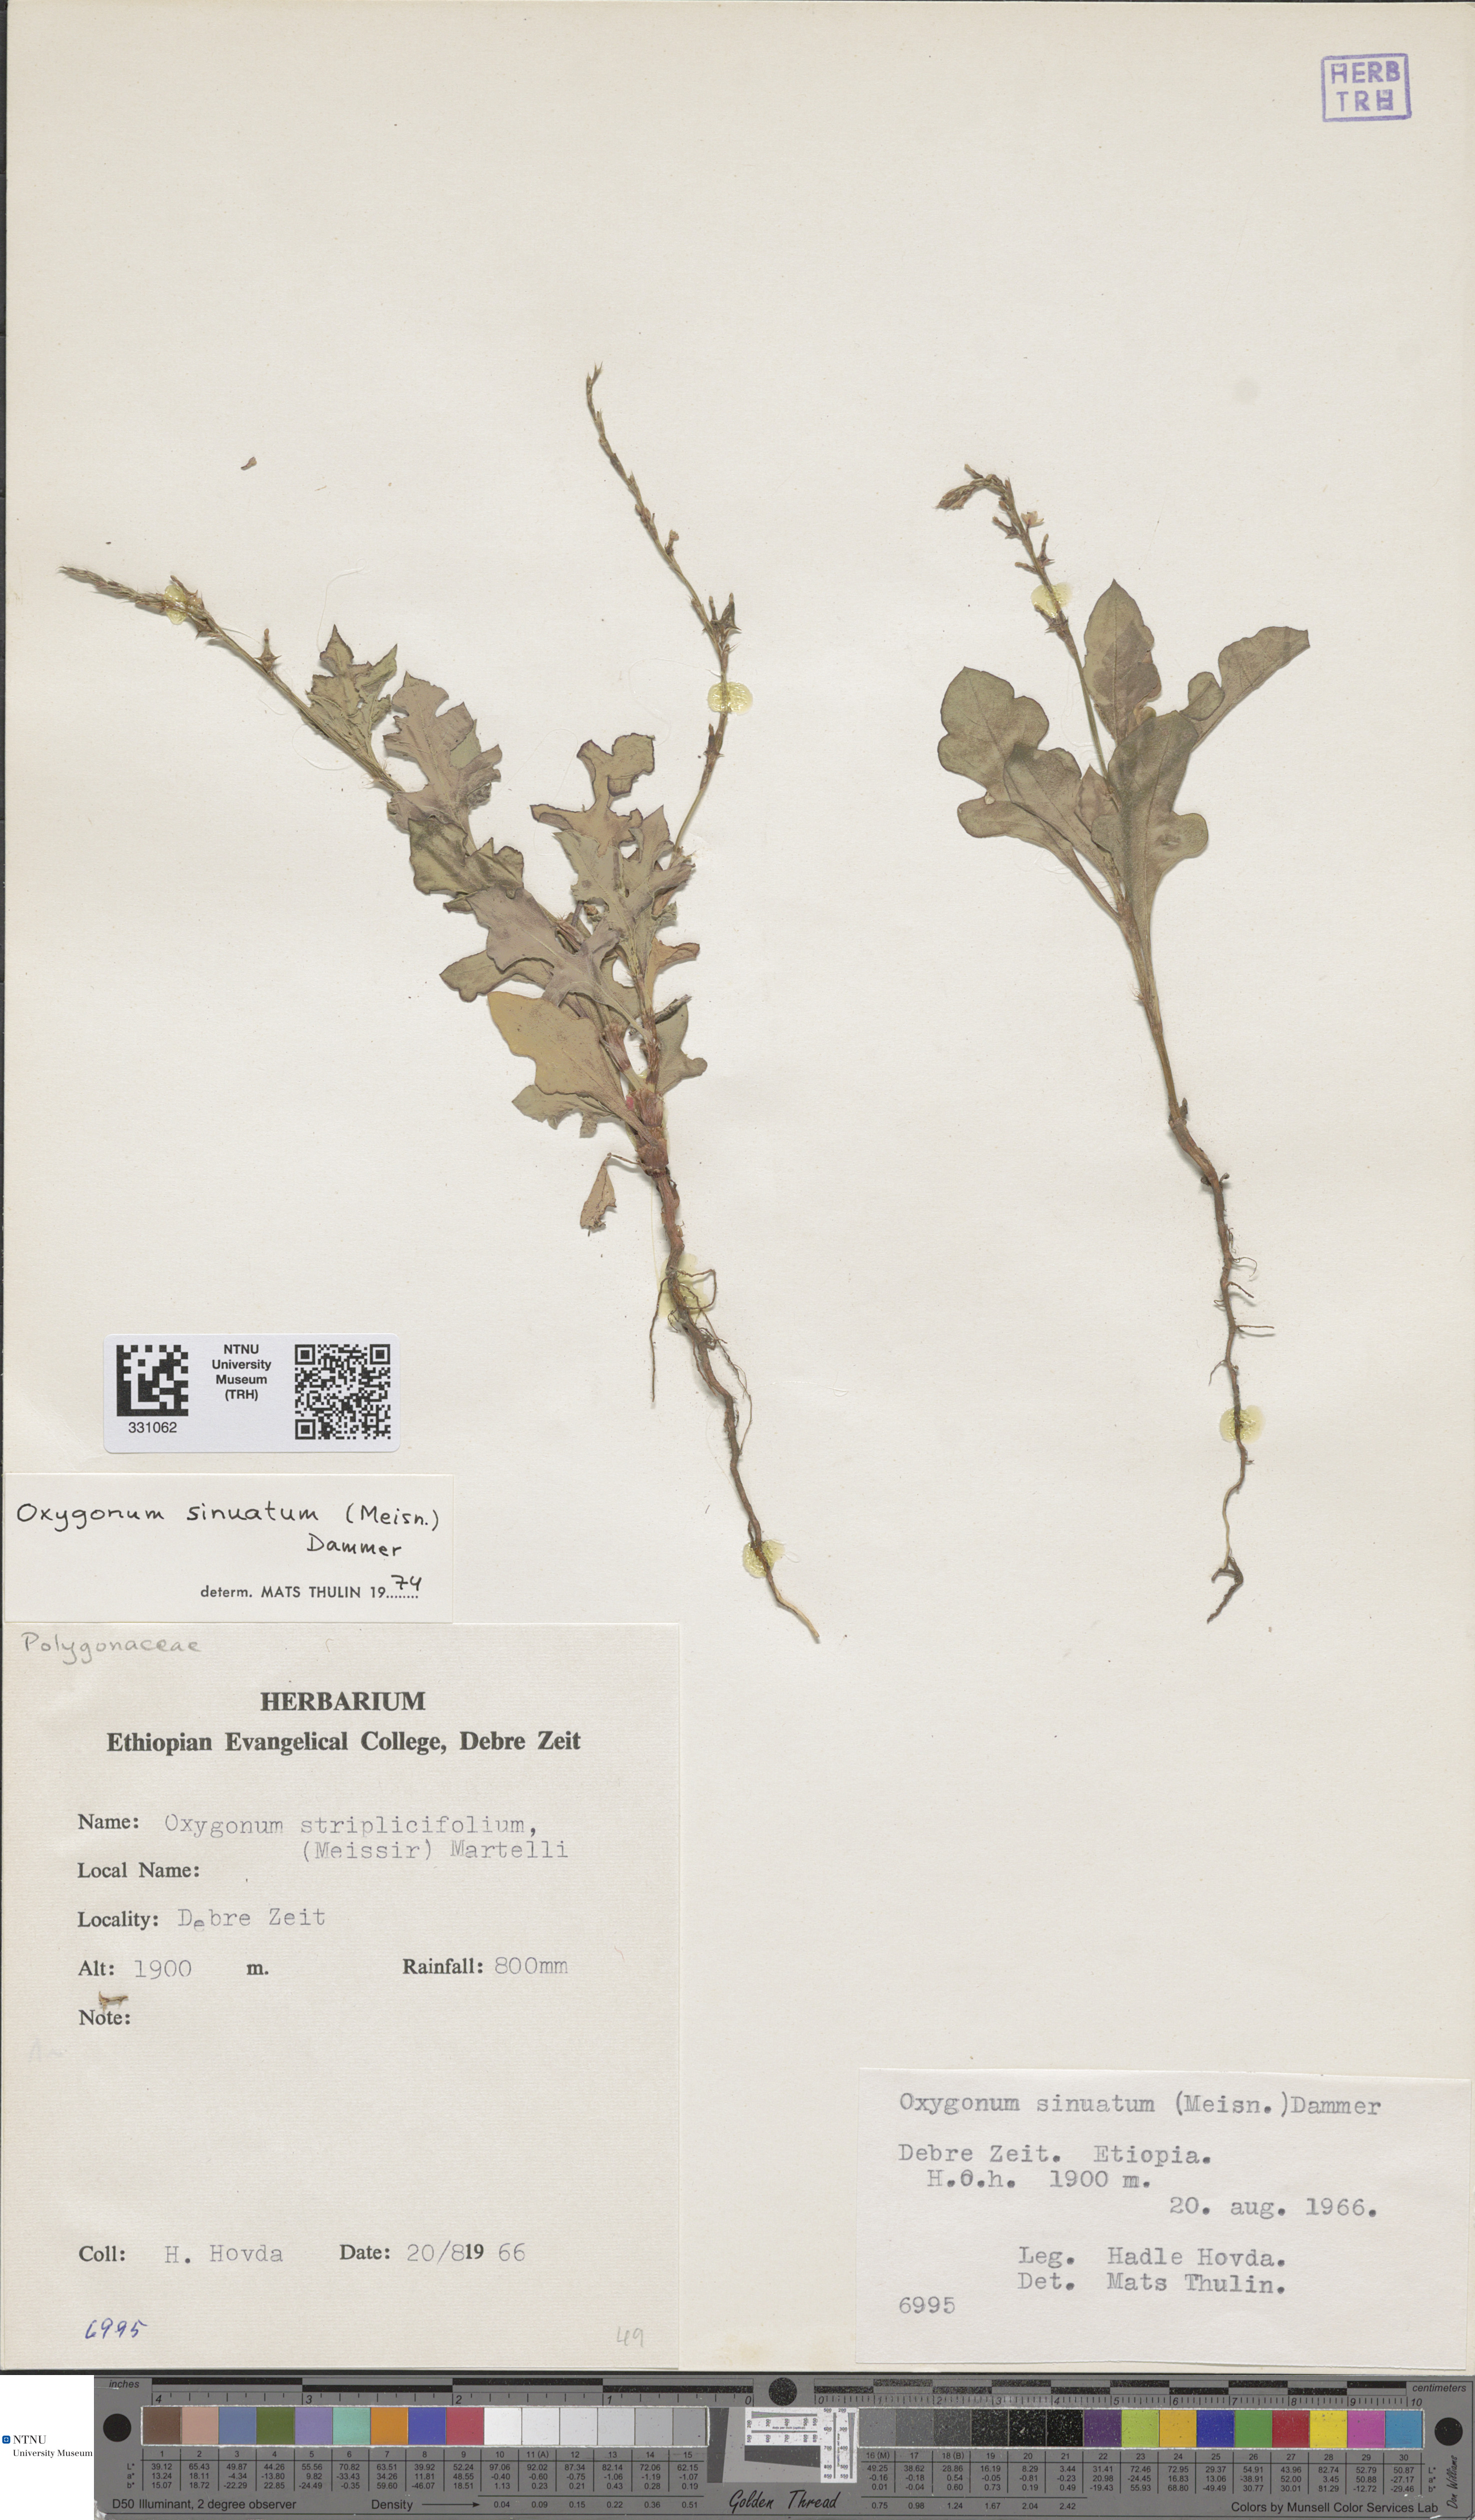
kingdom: Plantae
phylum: Tracheophyta
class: Magnoliopsida
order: Caryophyllales
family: Polygonaceae
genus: Oxygonum
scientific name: Oxygonum sinuatum
